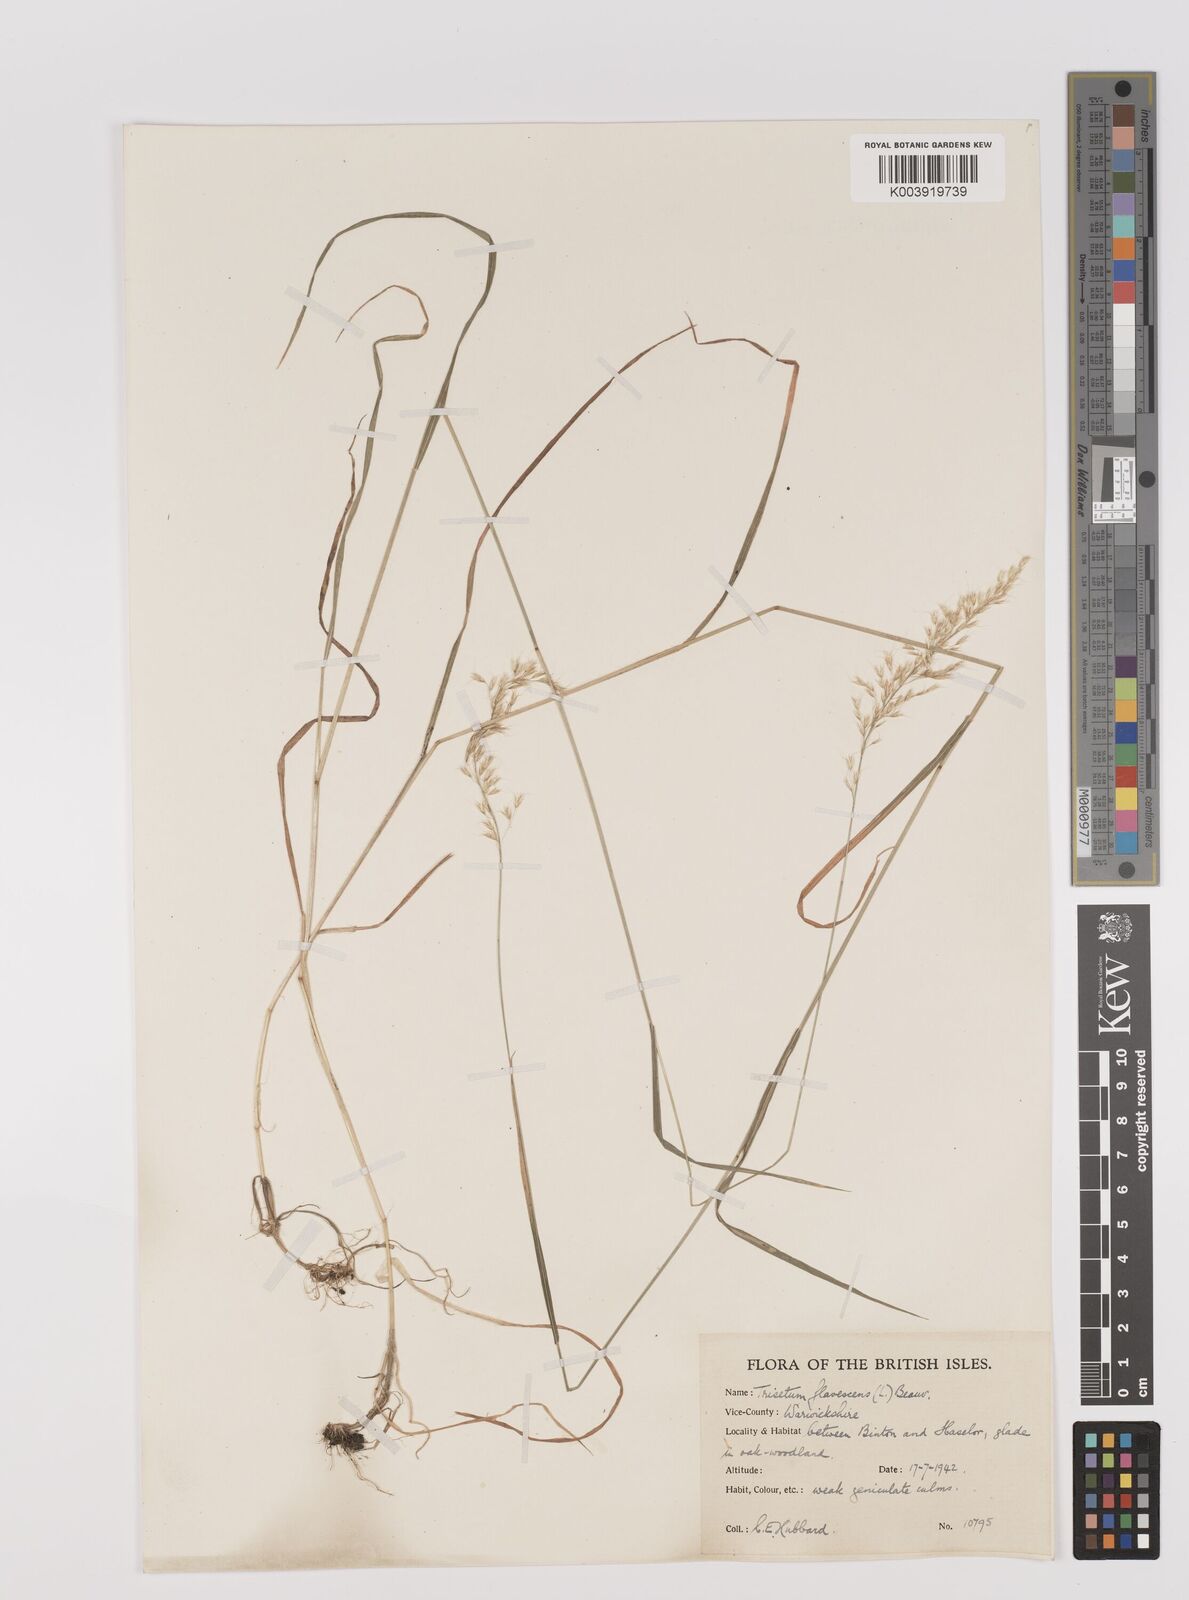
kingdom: Plantae
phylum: Tracheophyta
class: Liliopsida
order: Poales
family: Poaceae
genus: Trisetum
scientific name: Trisetum flavescens
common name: Yellow oat-grass
